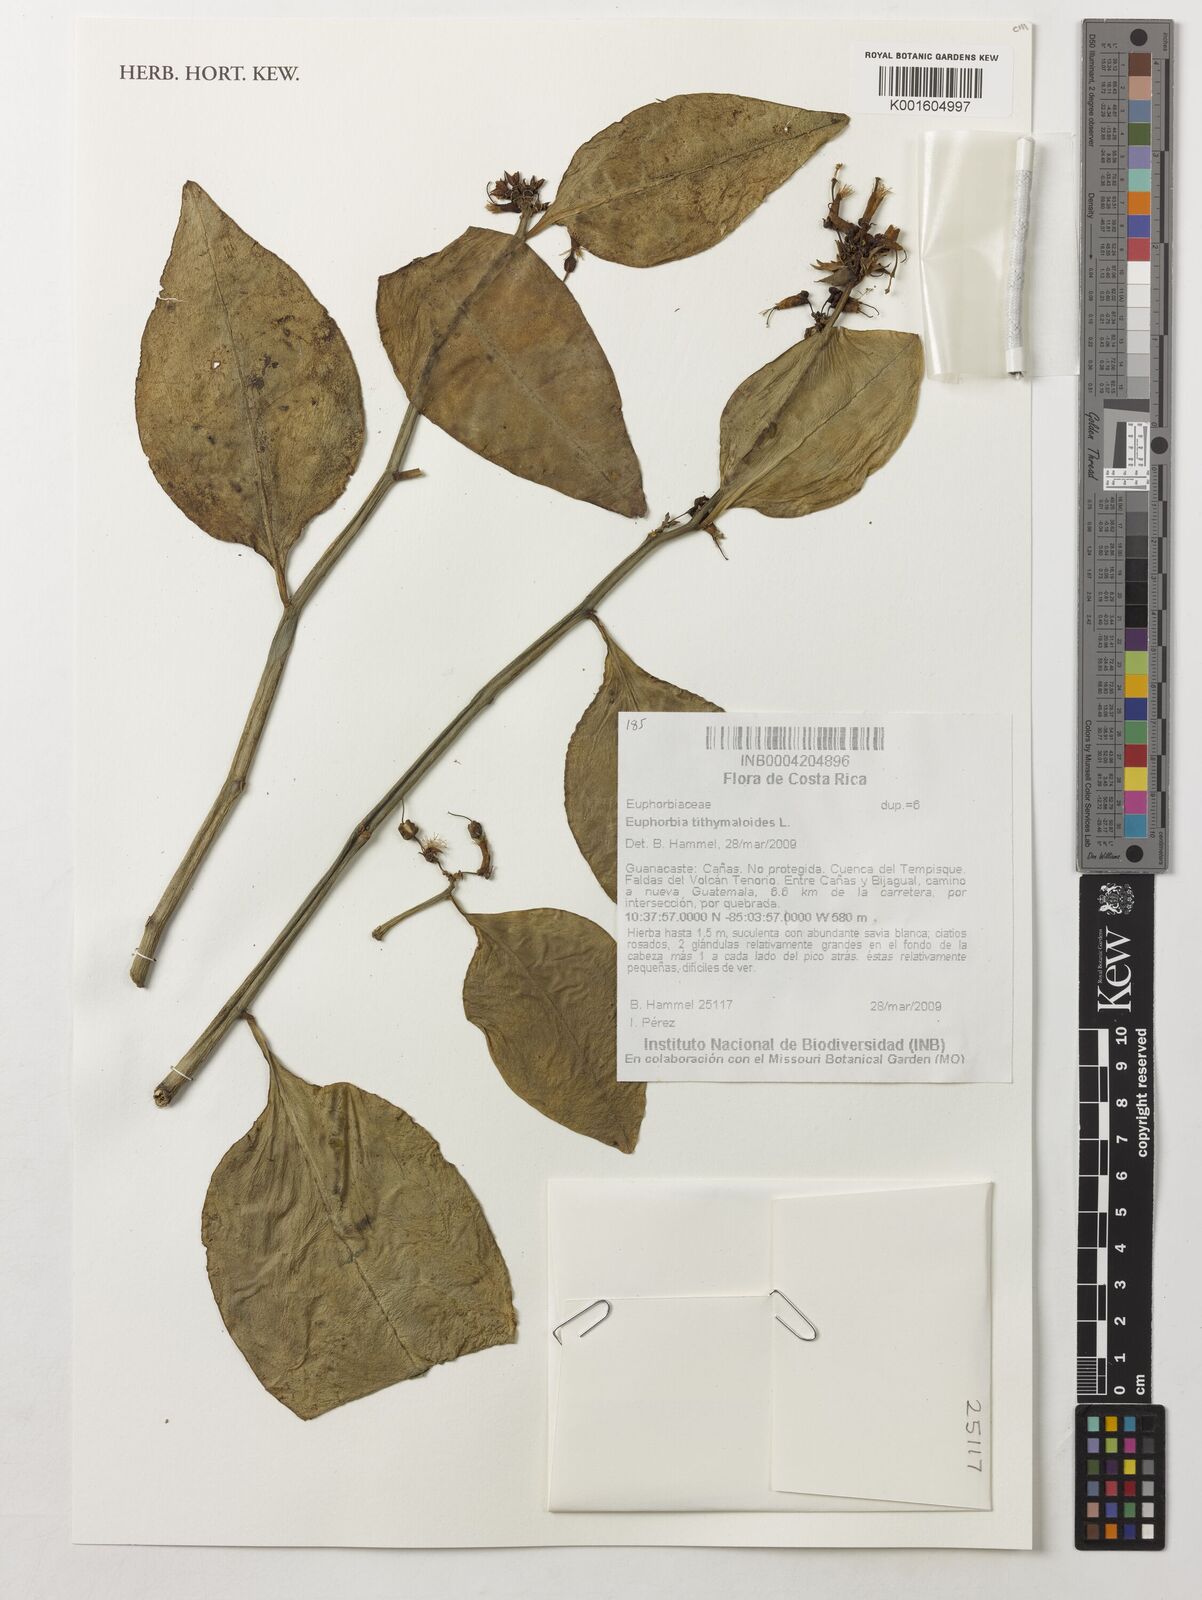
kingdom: Plantae
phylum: Tracheophyta
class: Magnoliopsida
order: Malpighiales
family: Euphorbiaceae
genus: Euphorbia
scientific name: Euphorbia tithymaloides
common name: Slipperplant
